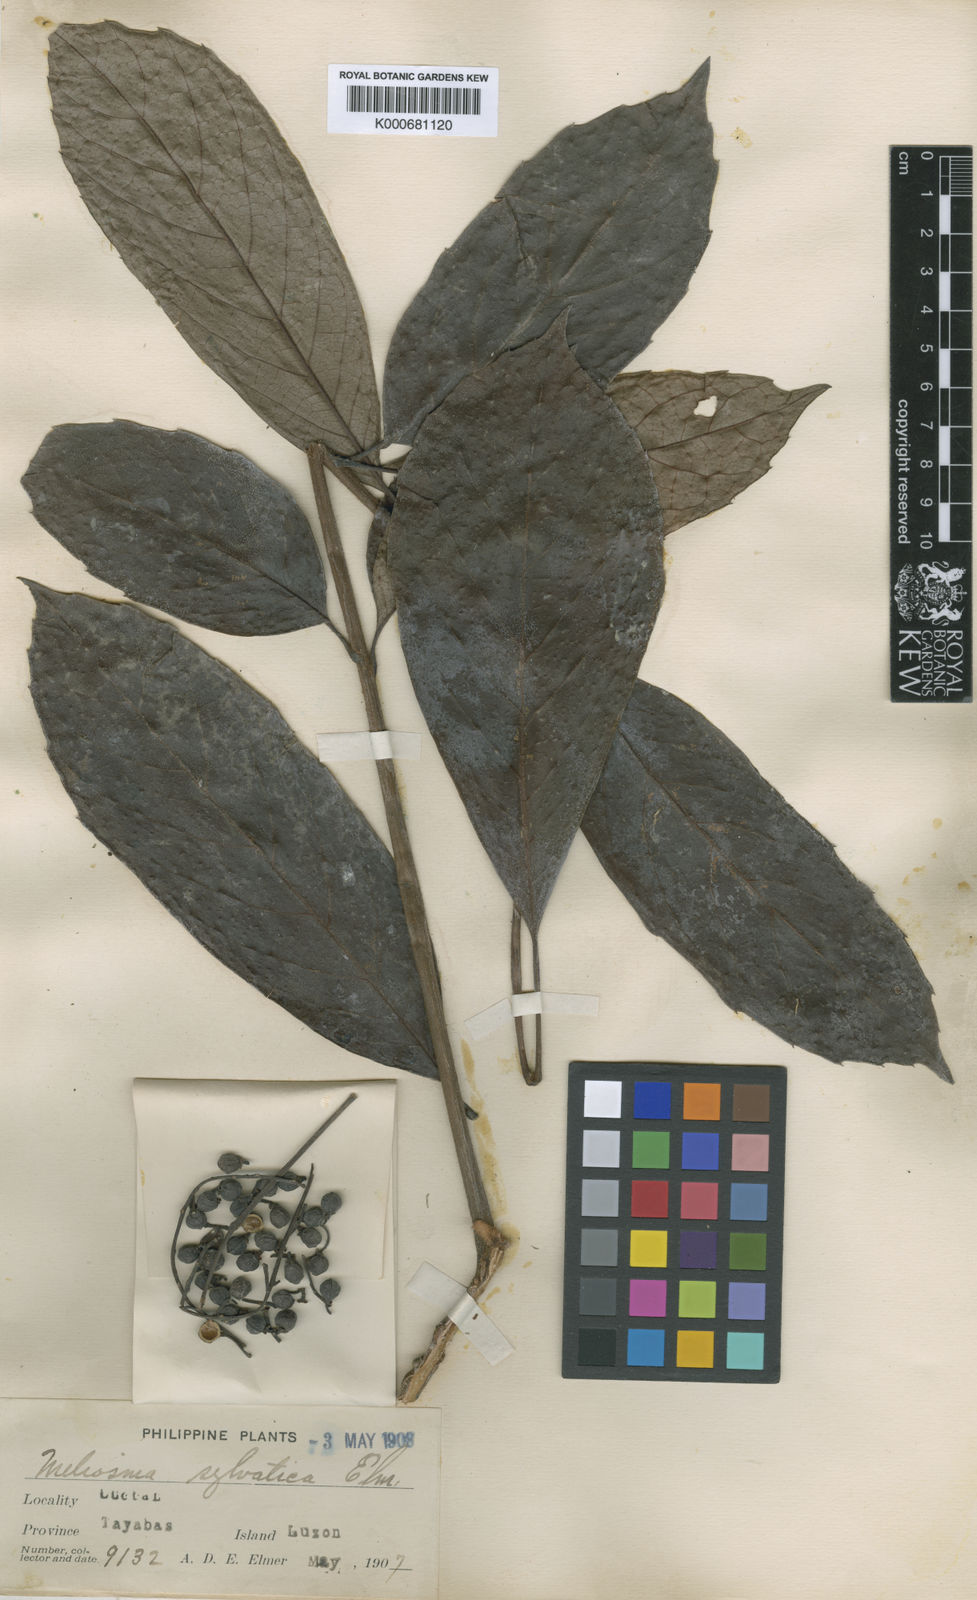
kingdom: Plantae
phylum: Tracheophyta
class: Magnoliopsida
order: Proteales
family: Sabiaceae
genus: Meliosma
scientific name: Meliosma pinnata
